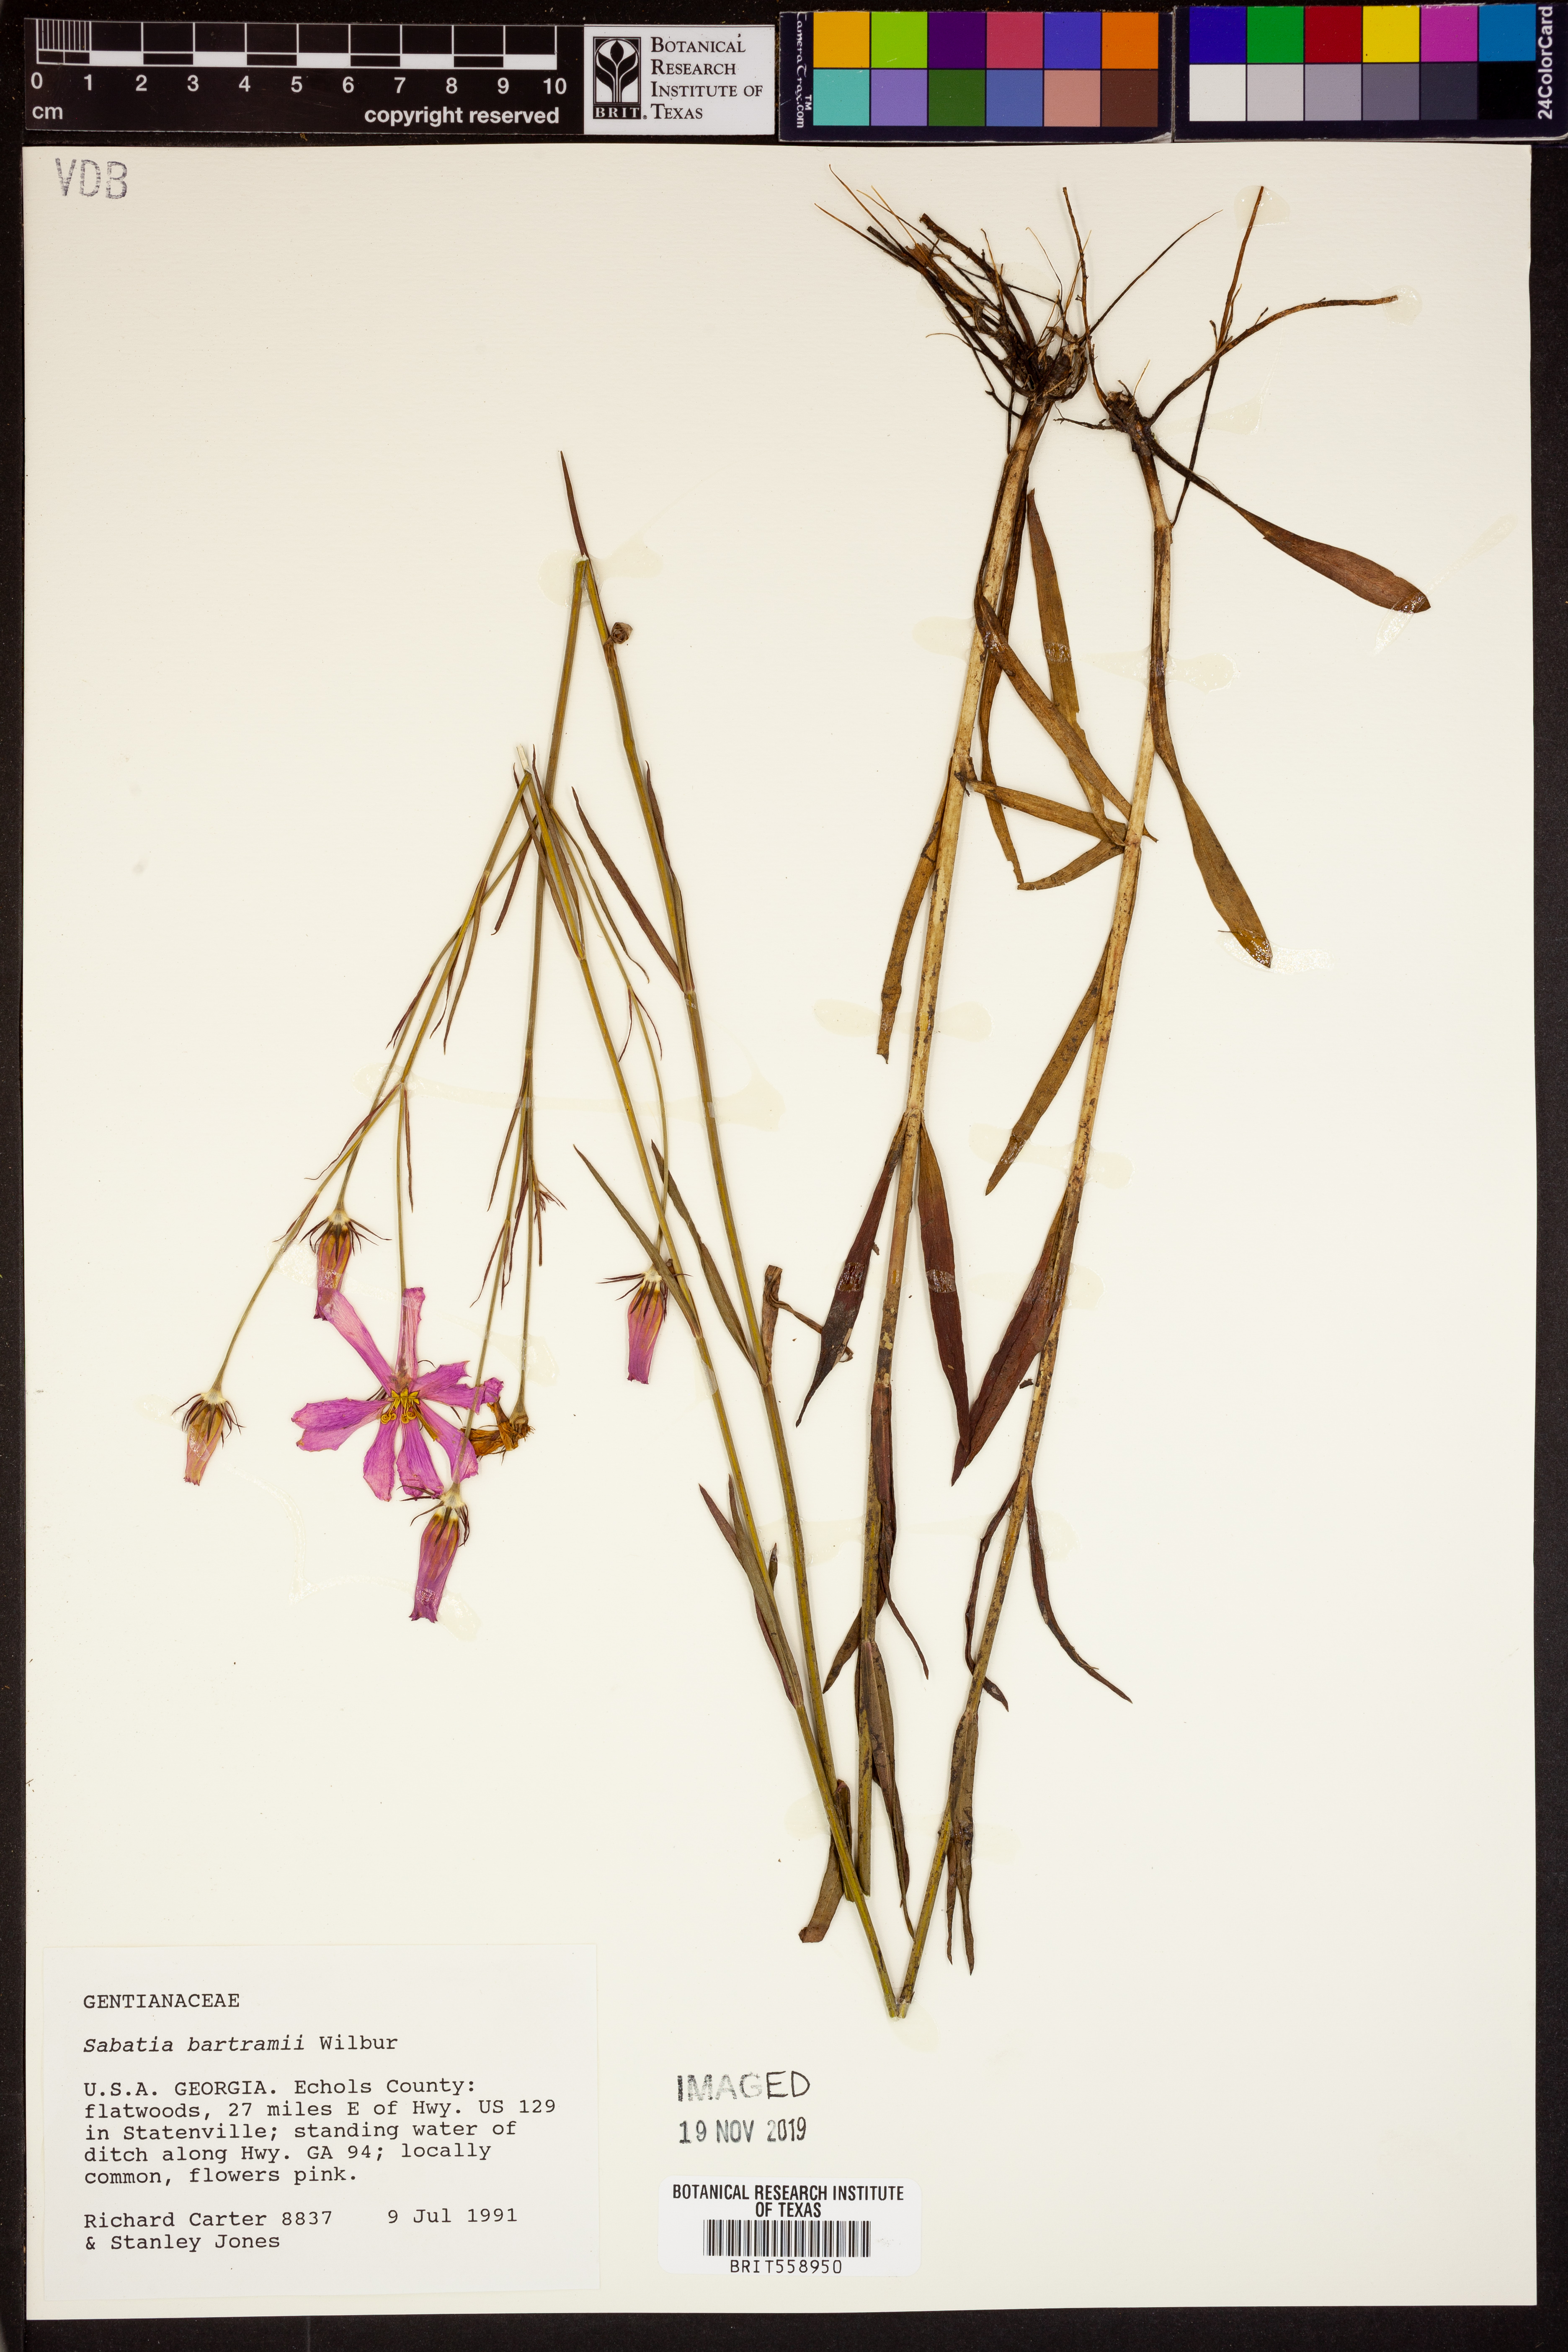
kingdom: Plantae
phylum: Tracheophyta
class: Magnoliopsida
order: Gentianales
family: Gentianaceae
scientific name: Gentianaceae
